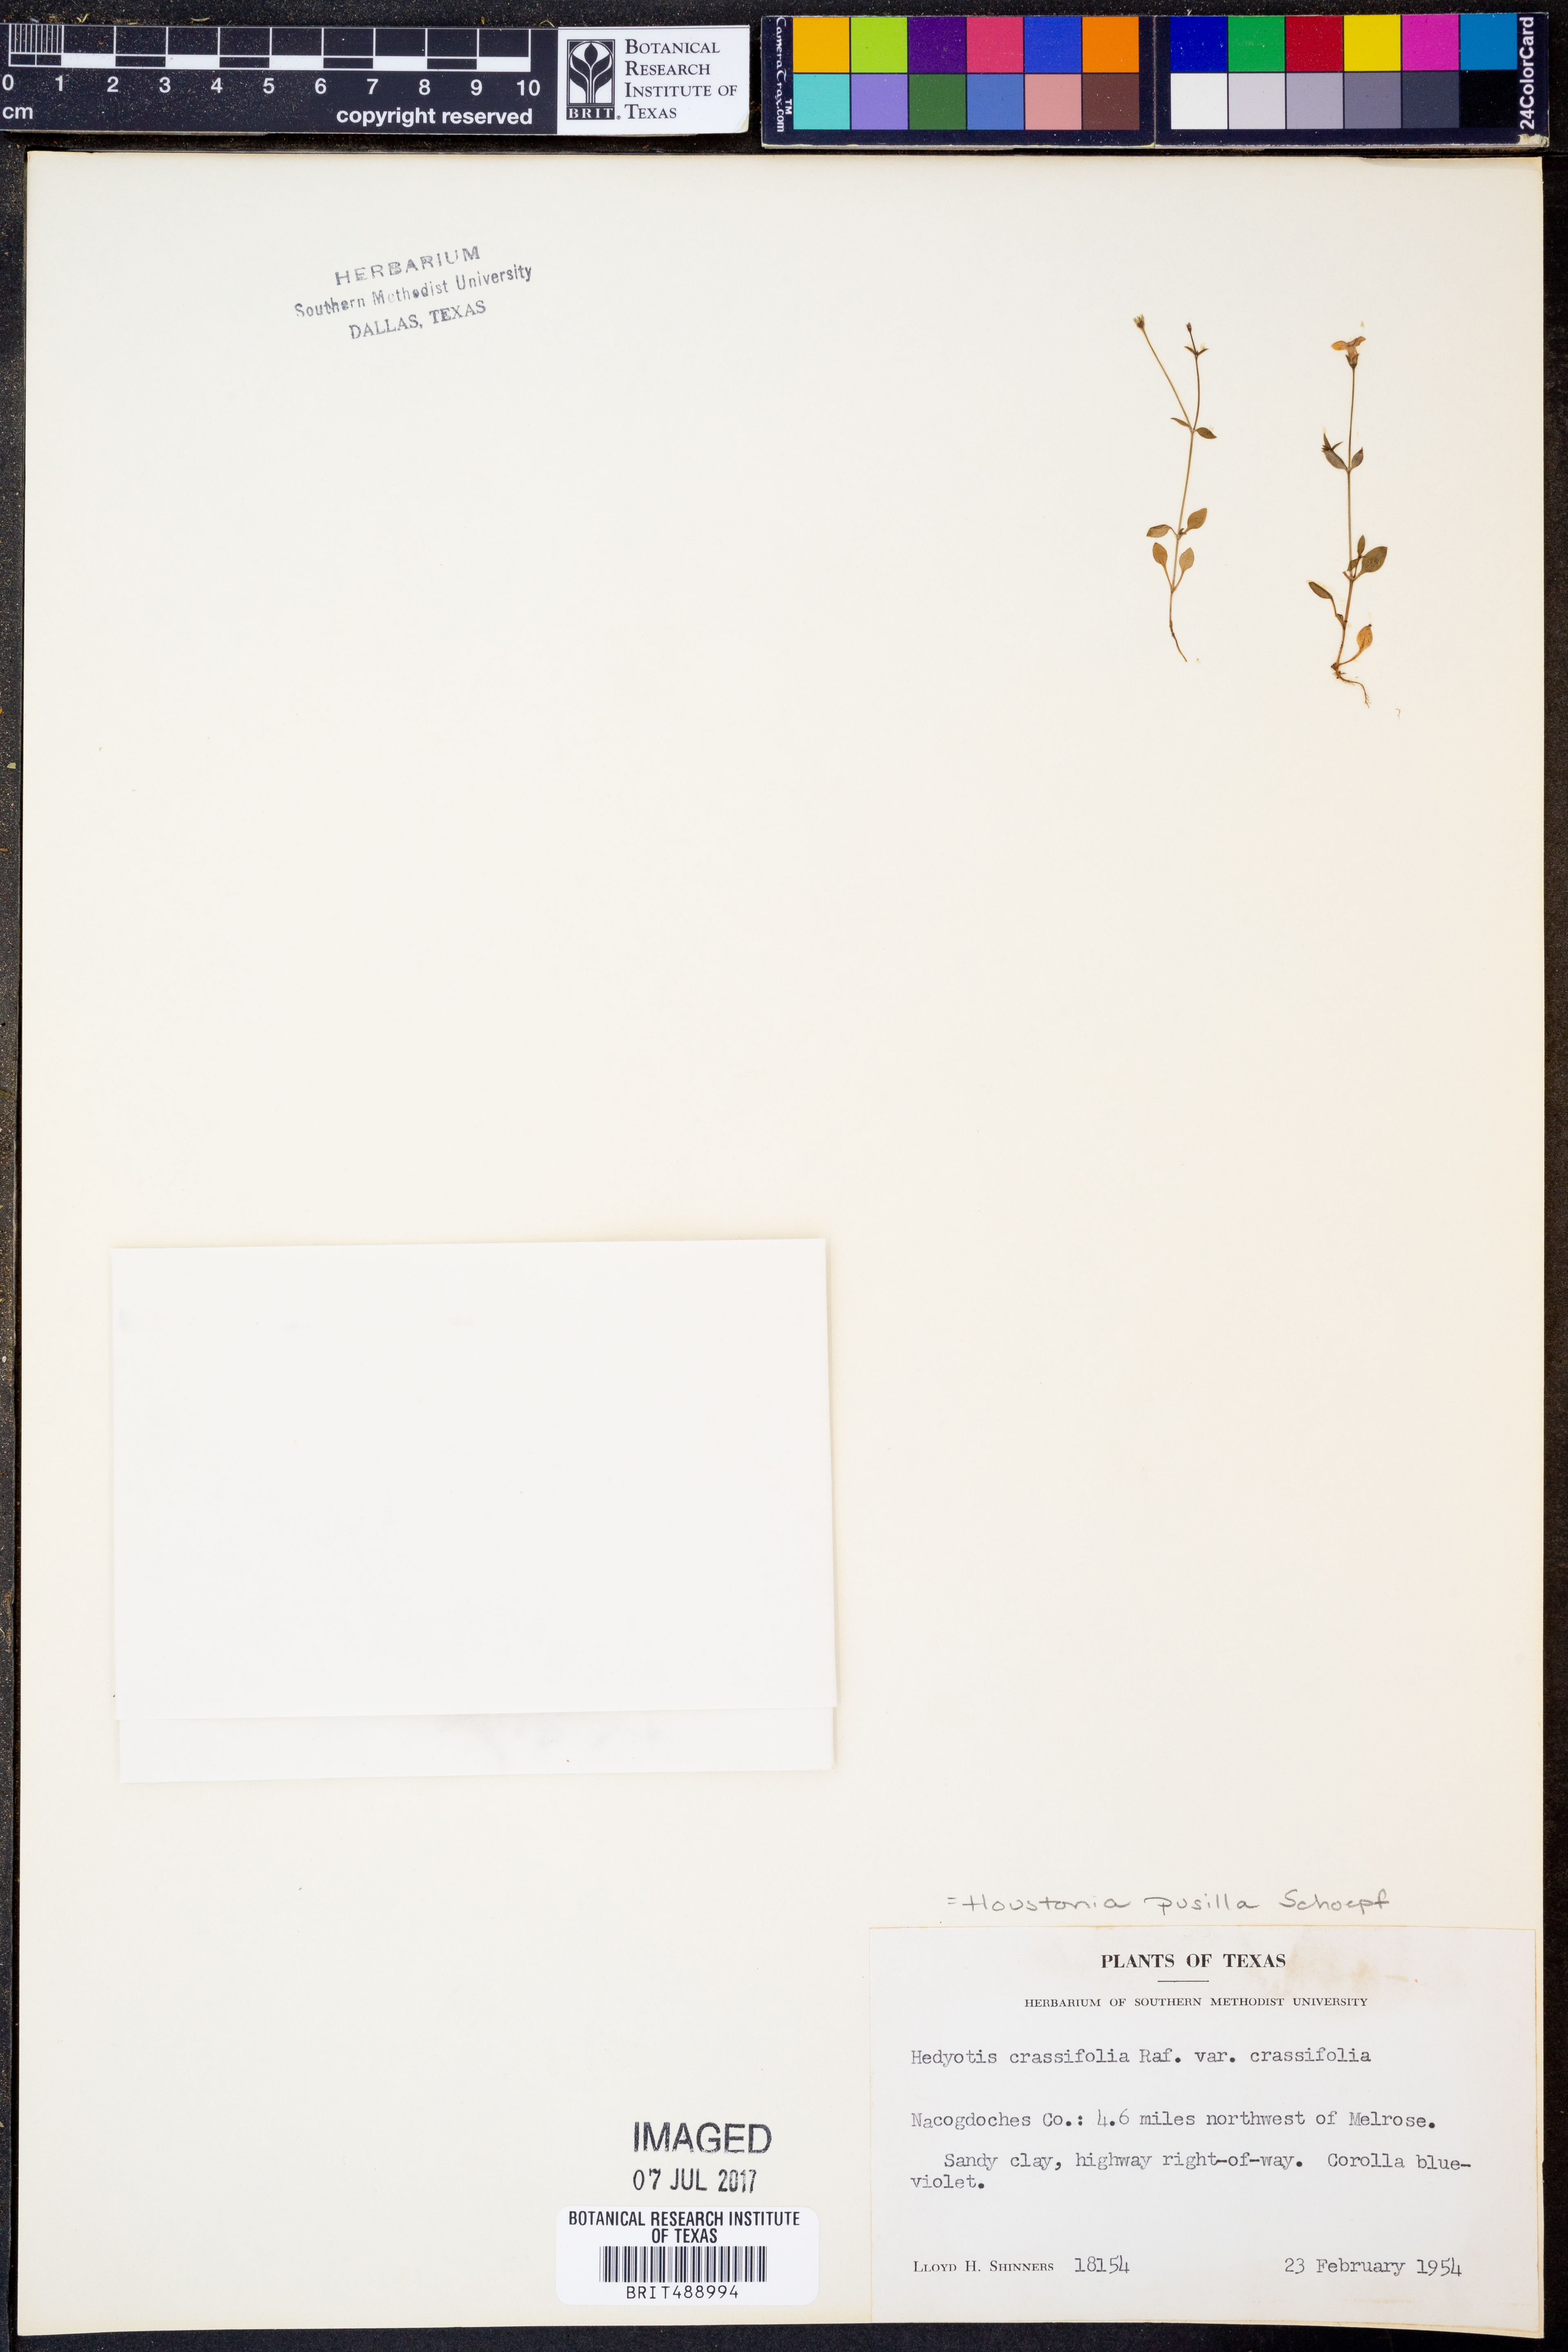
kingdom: Plantae
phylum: Tracheophyta
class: Magnoliopsida
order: Gentianales
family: Rubiaceae
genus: Houstonia
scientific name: Houstonia pusilla
